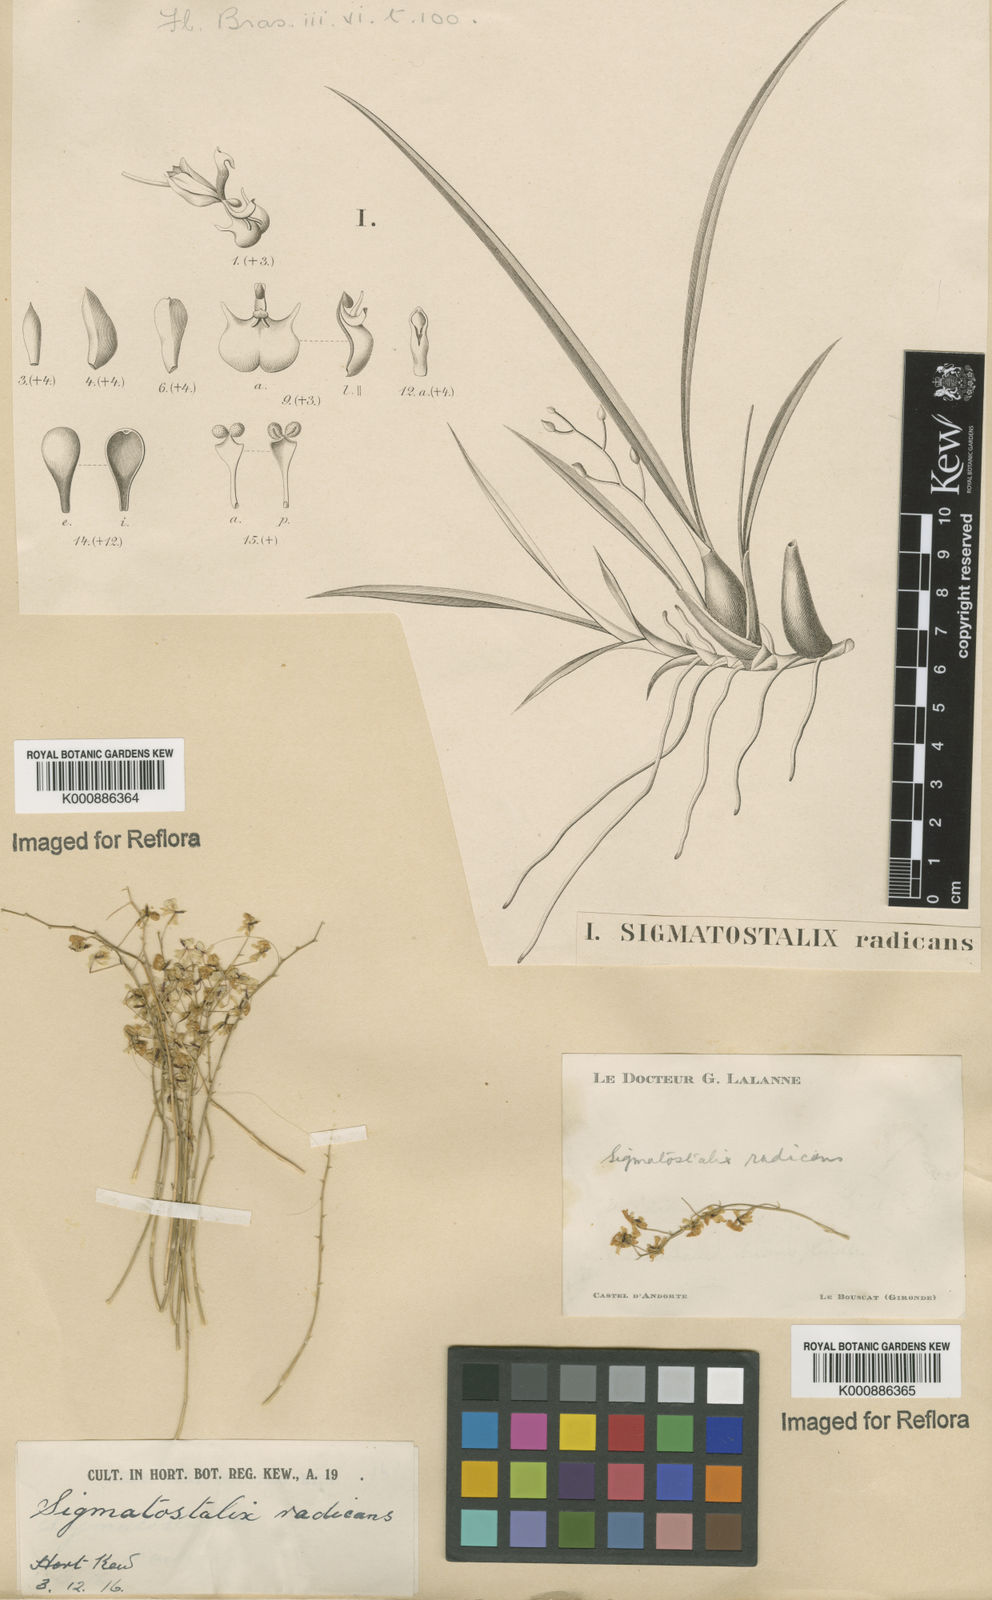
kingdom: Plantae
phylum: Tracheophyta
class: Liliopsida
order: Asparagales
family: Orchidaceae
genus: Gomesa
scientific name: Gomesa radicans
